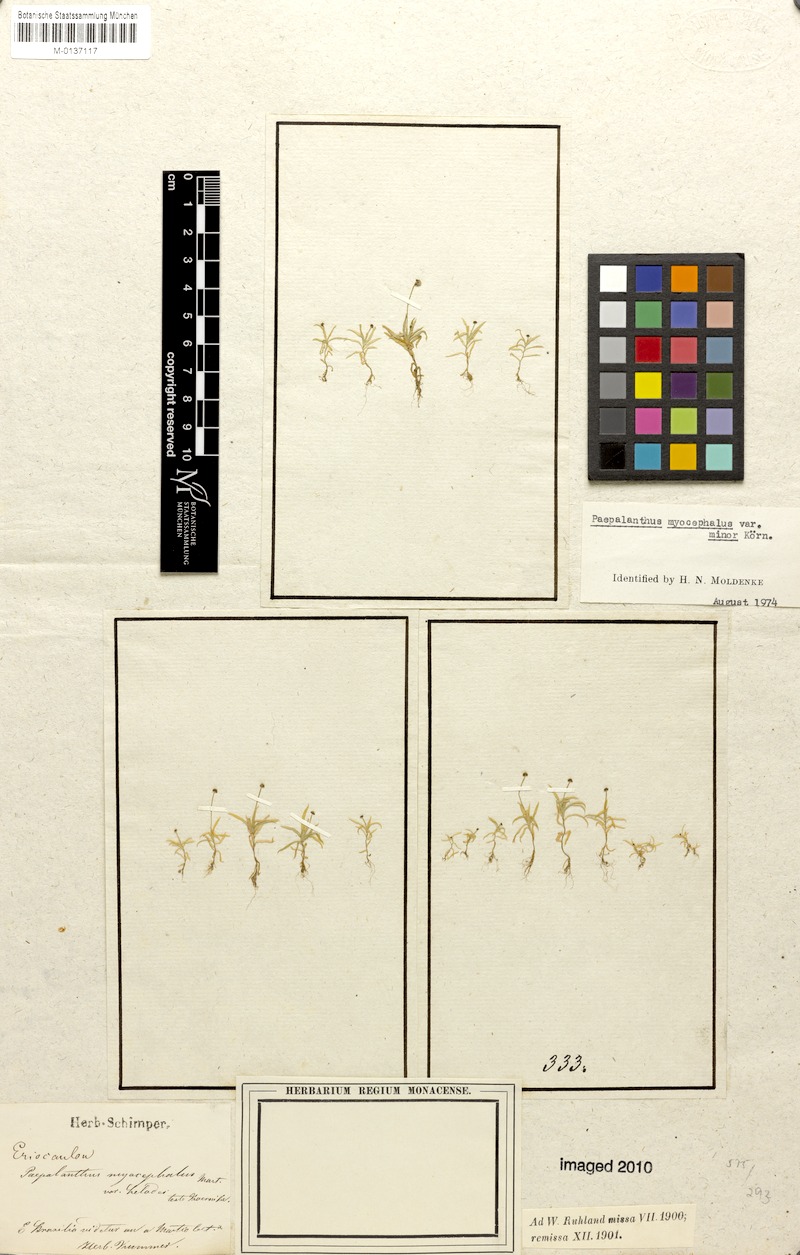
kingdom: Plantae
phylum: Tracheophyta
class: Liliopsida
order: Poales
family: Eriocaulaceae
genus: Paepalanthus
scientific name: Paepalanthus myocephalon
